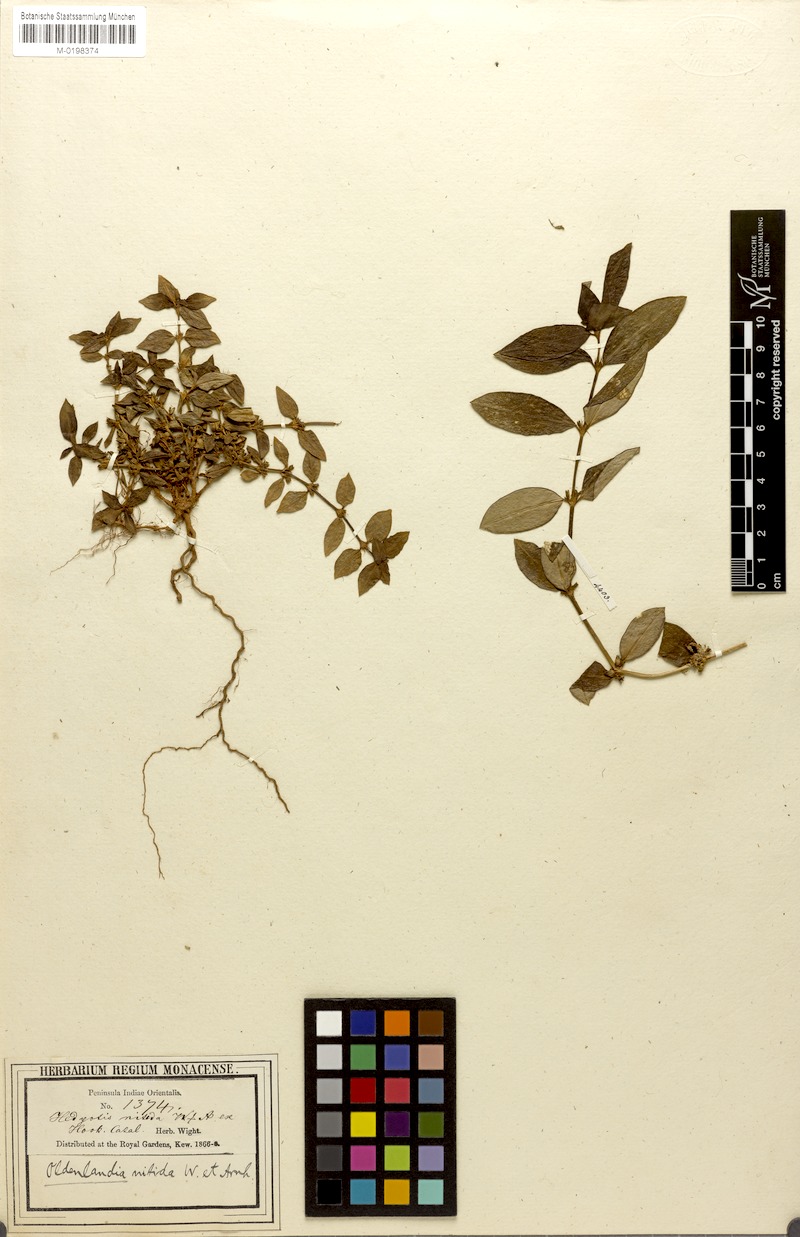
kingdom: Plantae
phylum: Tracheophyta
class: Magnoliopsida
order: Gentianales
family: Rubiaceae
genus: Hedyotis
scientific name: Hedyotis neesiana
